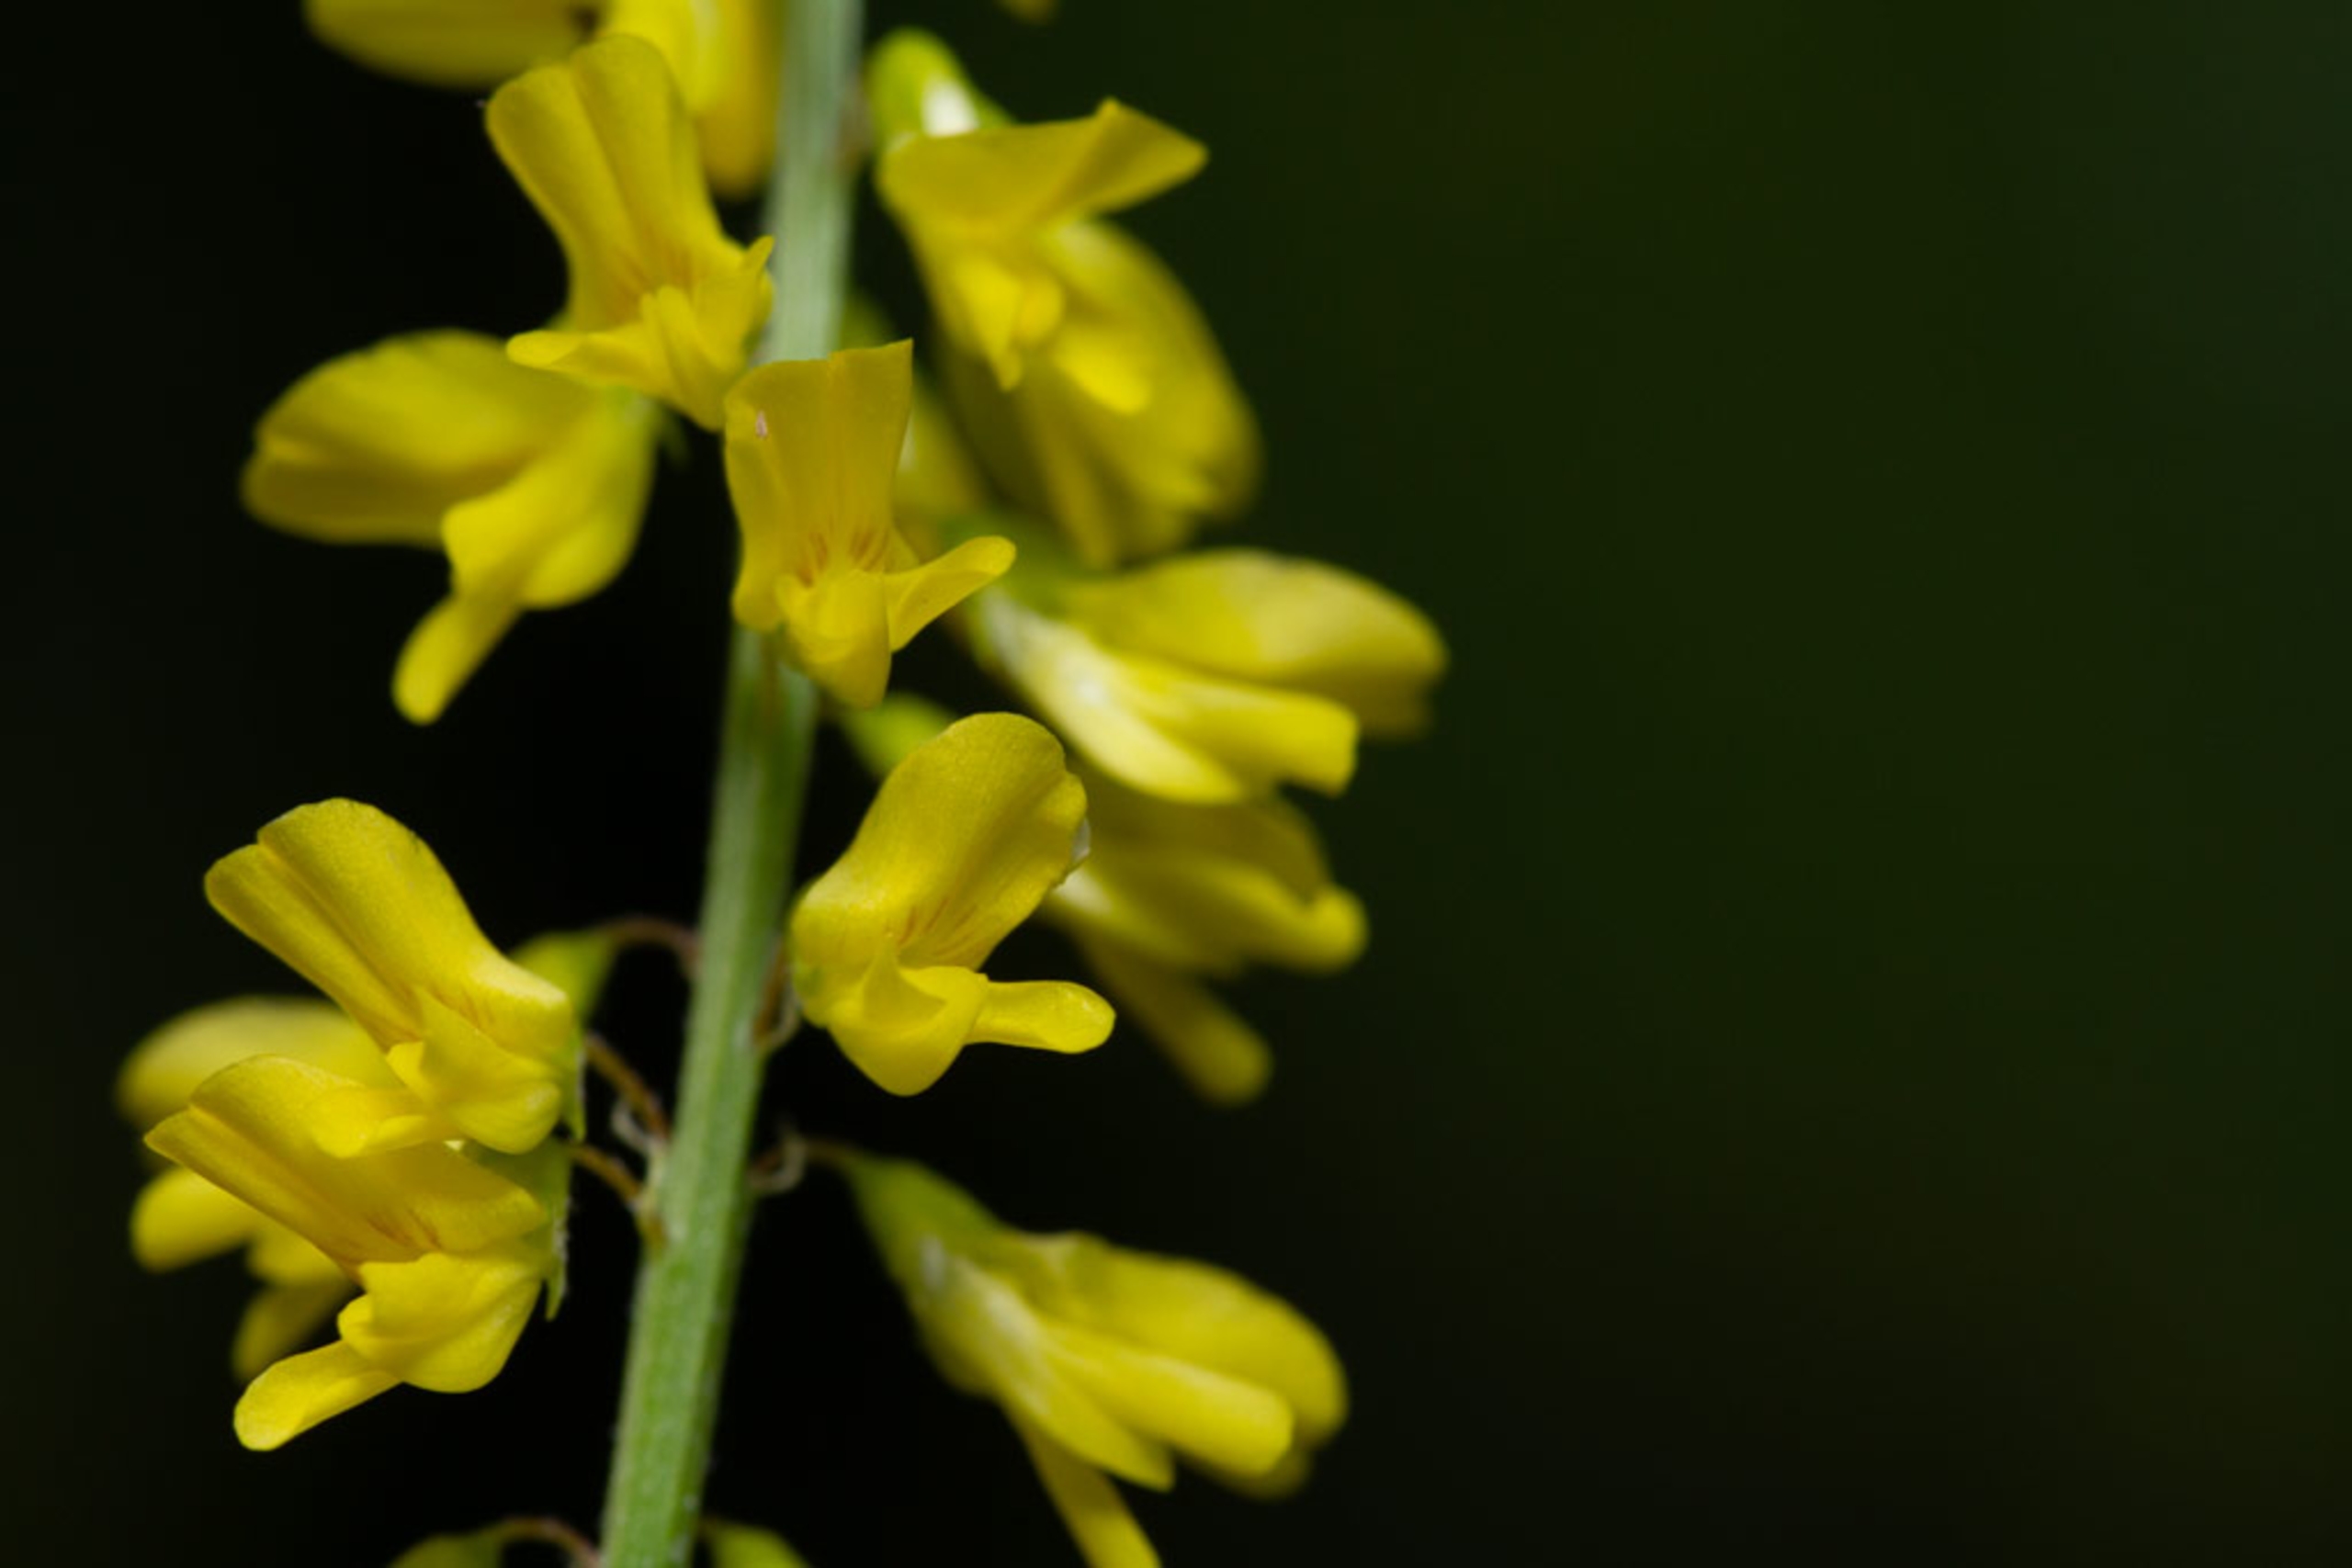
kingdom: Plantae
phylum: Tracheophyta
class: Magnoliopsida
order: Fabales
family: Fabaceae
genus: Melilotus
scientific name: Melilotus officinalis
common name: Mark-stenkløver
